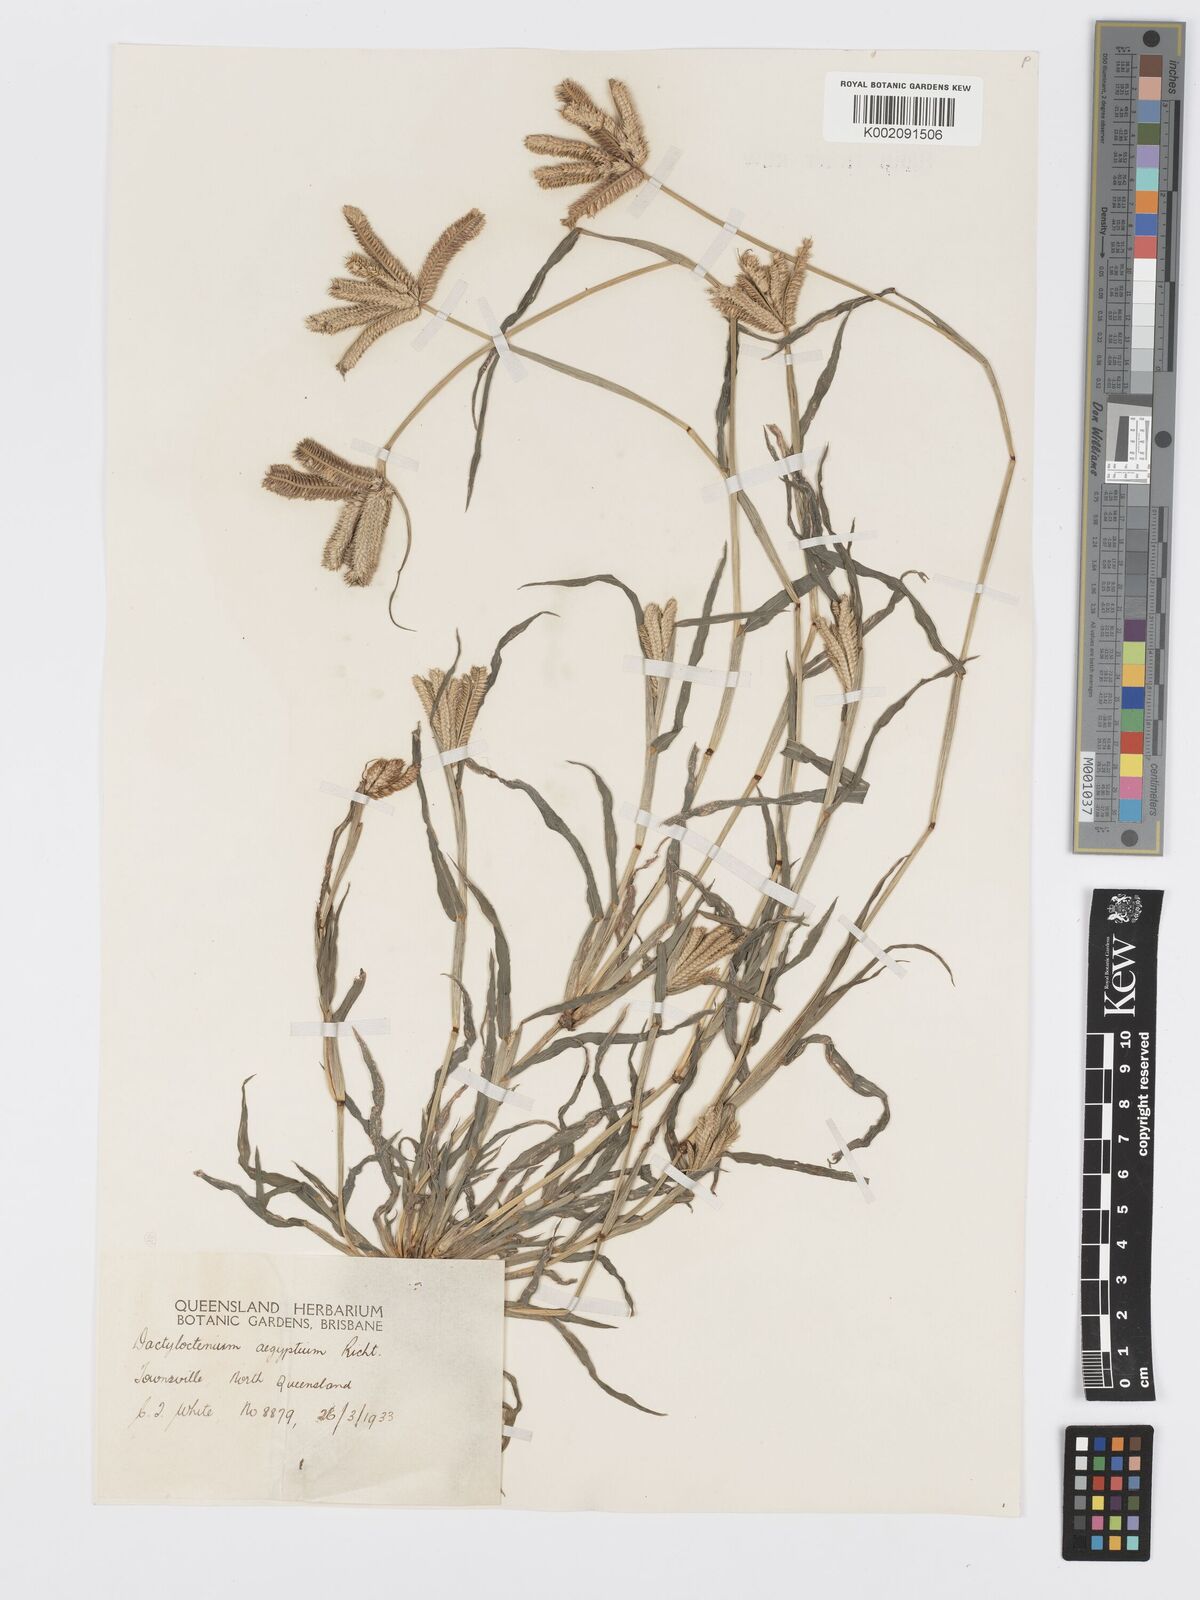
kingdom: Plantae
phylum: Tracheophyta
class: Liliopsida
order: Poales
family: Poaceae
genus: Dactyloctenium
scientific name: Dactyloctenium aegyptium
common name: Egyptian grass
